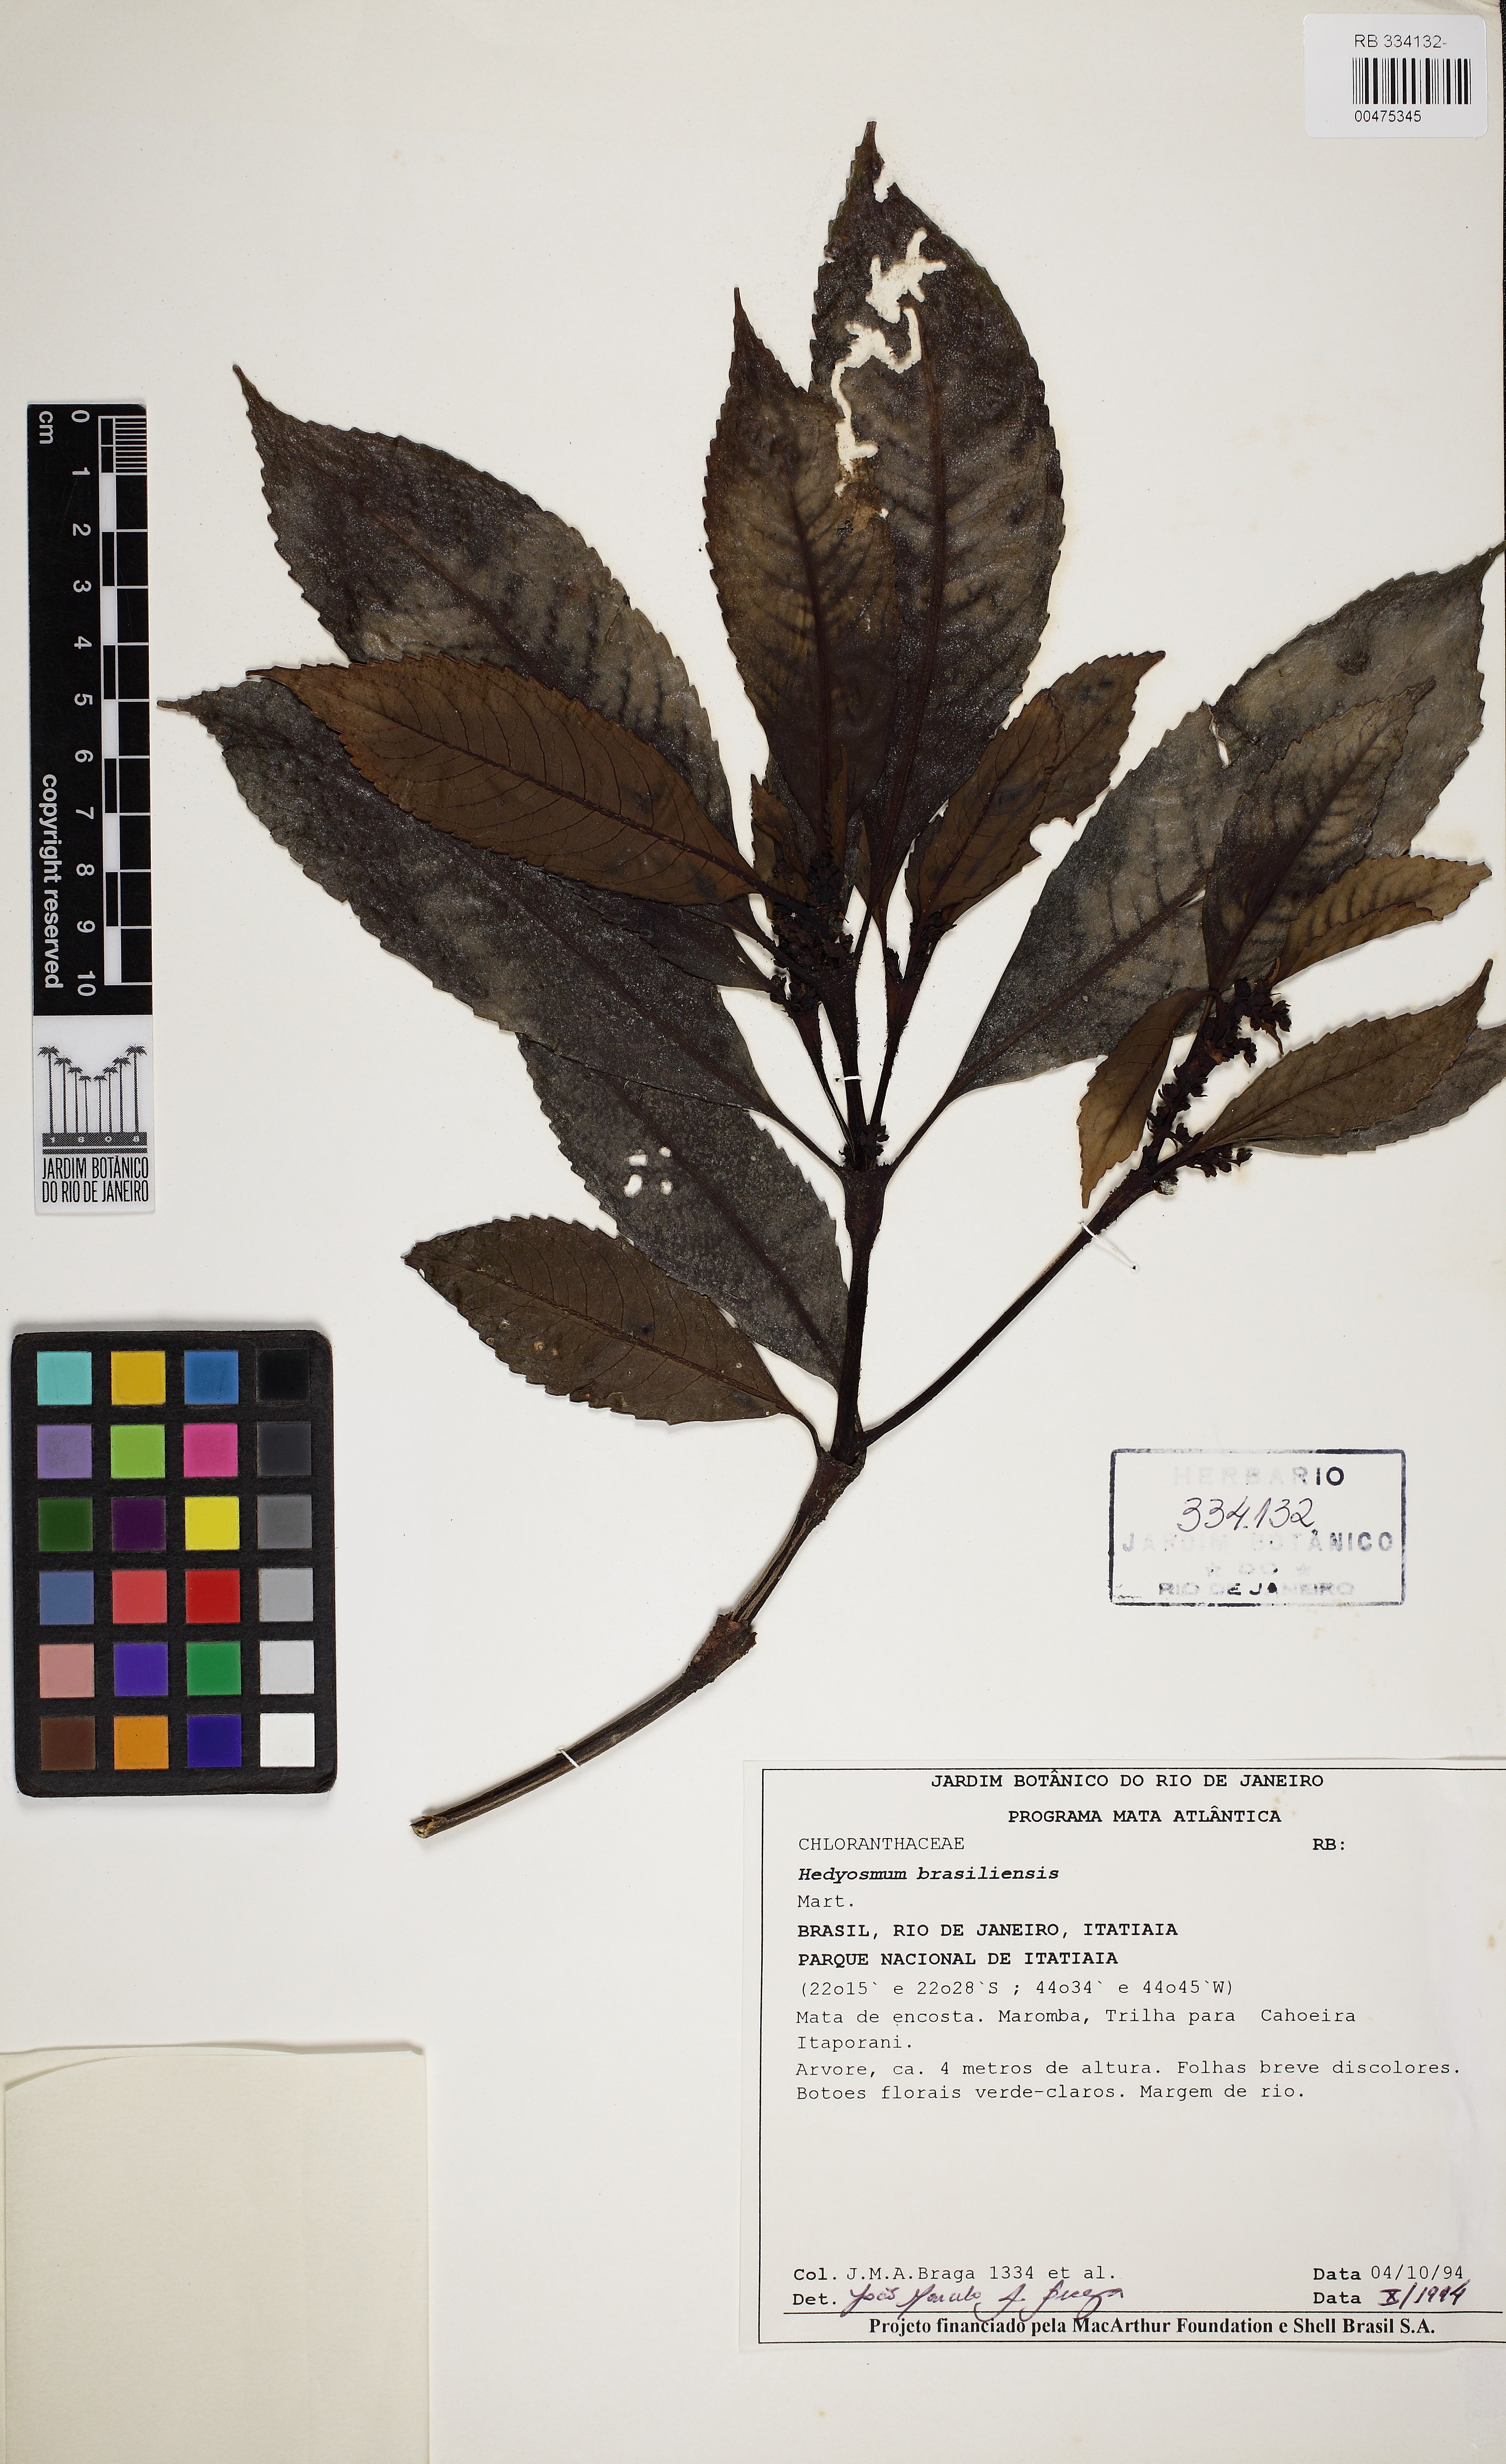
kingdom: Plantae
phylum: Tracheophyta
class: Magnoliopsida
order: Chloranthales
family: Chloranthaceae
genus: Hedyosmum
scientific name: Hedyosmum brasiliense
